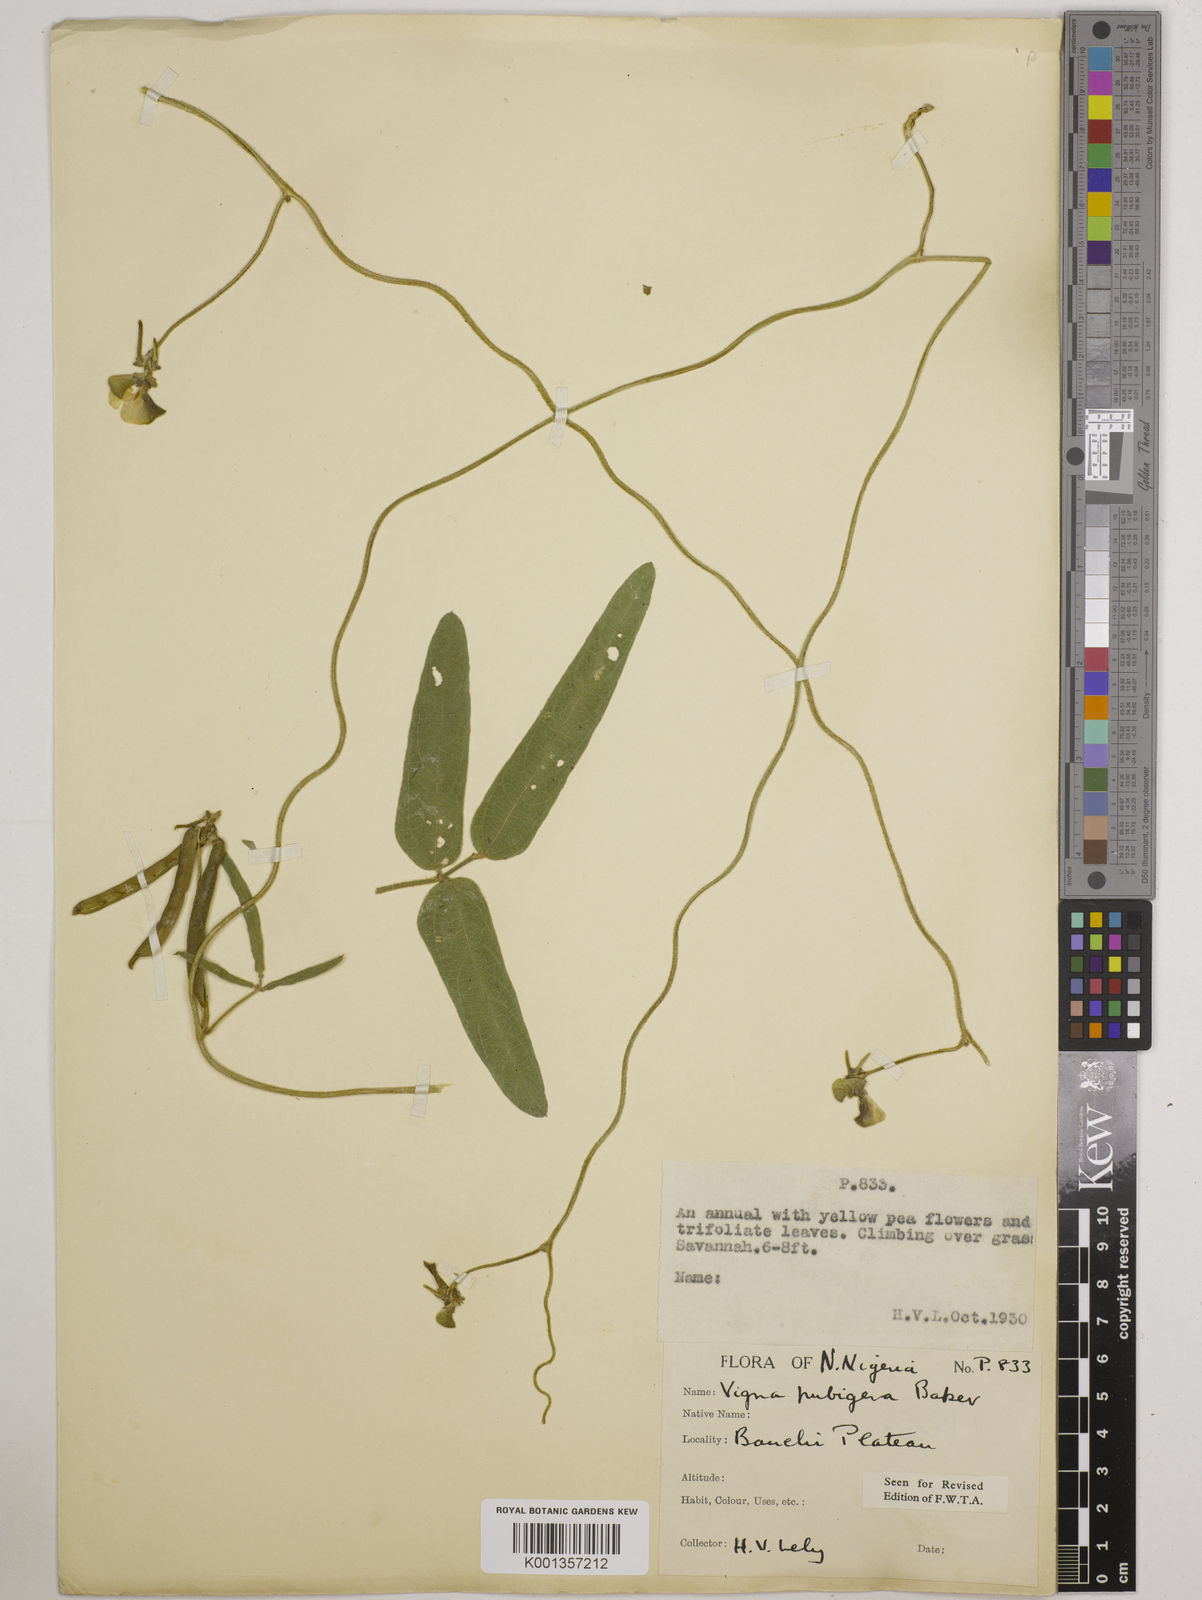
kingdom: Plantae
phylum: Tracheophyta
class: Magnoliopsida
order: Fabales
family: Fabaceae
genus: Vigna
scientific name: Vigna ambacensis
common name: Tsarkiyan zomo
